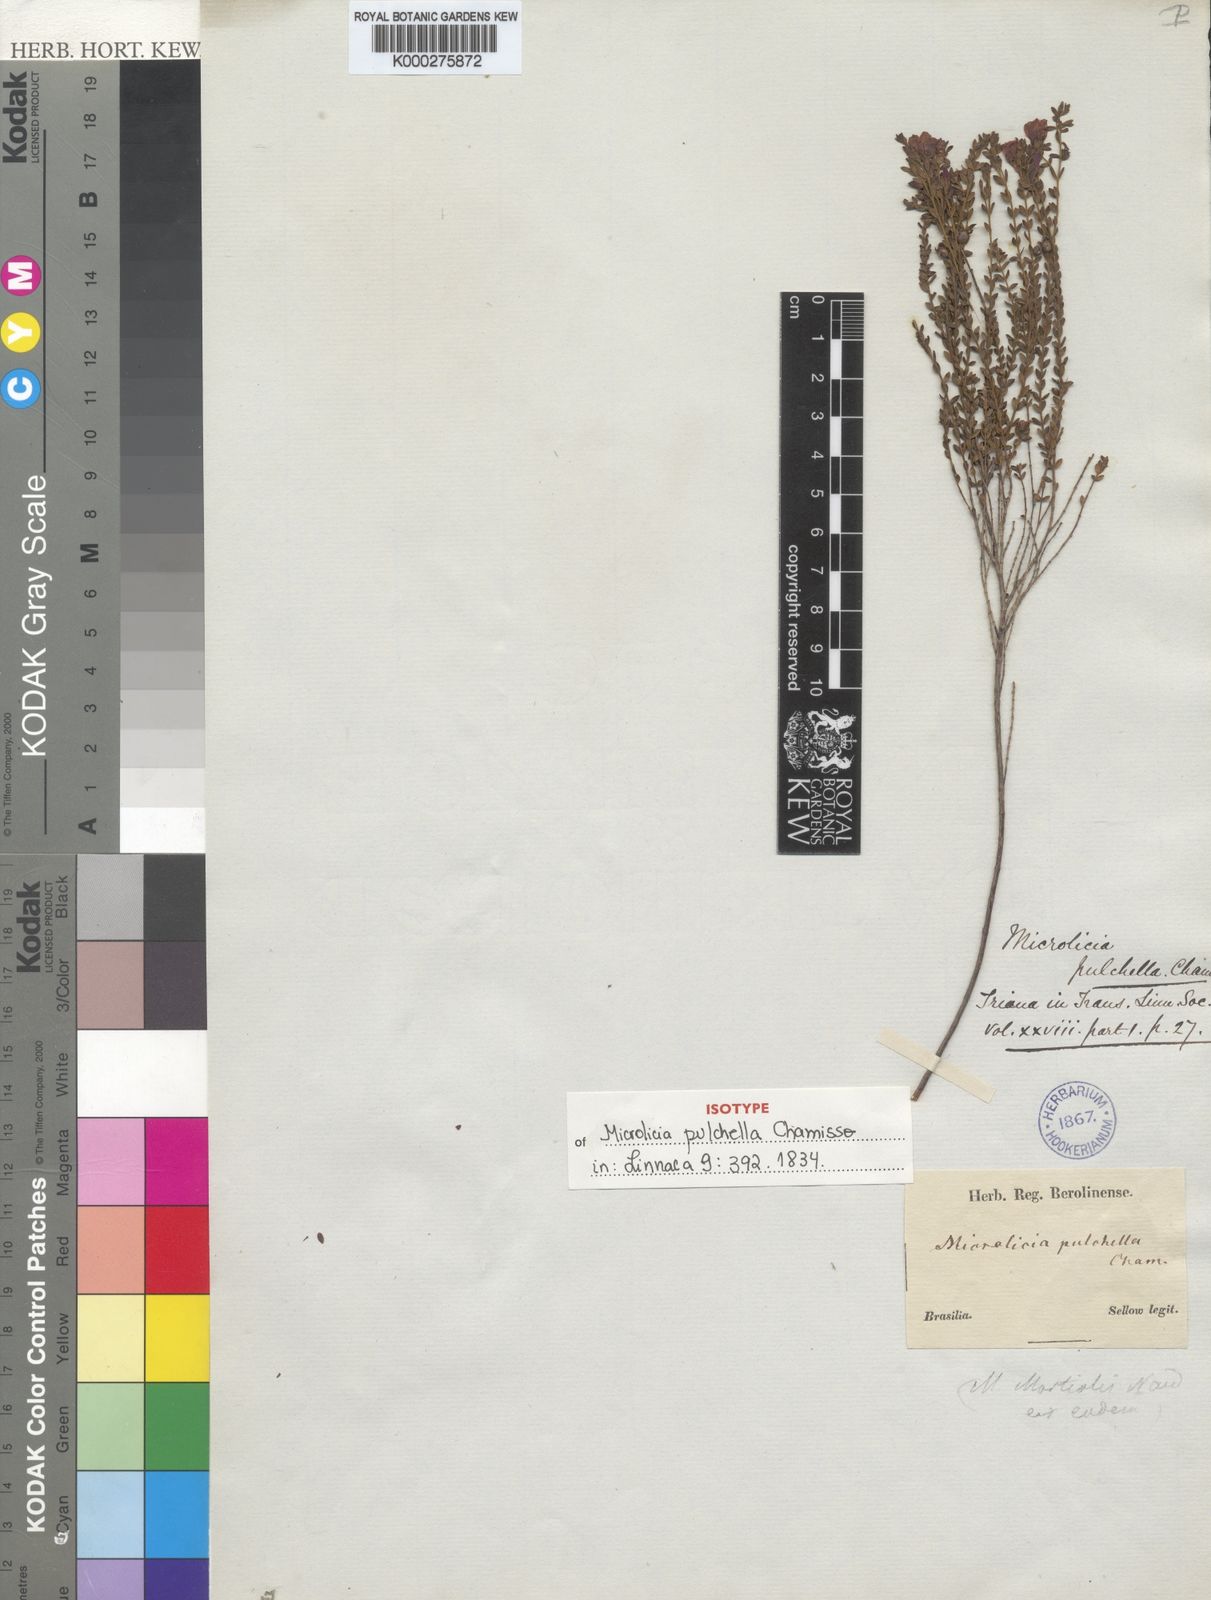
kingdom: Plantae
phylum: Tracheophyta
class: Magnoliopsida
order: Myrtales
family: Melastomataceae
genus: Microlicia
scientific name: Microlicia isophylla
